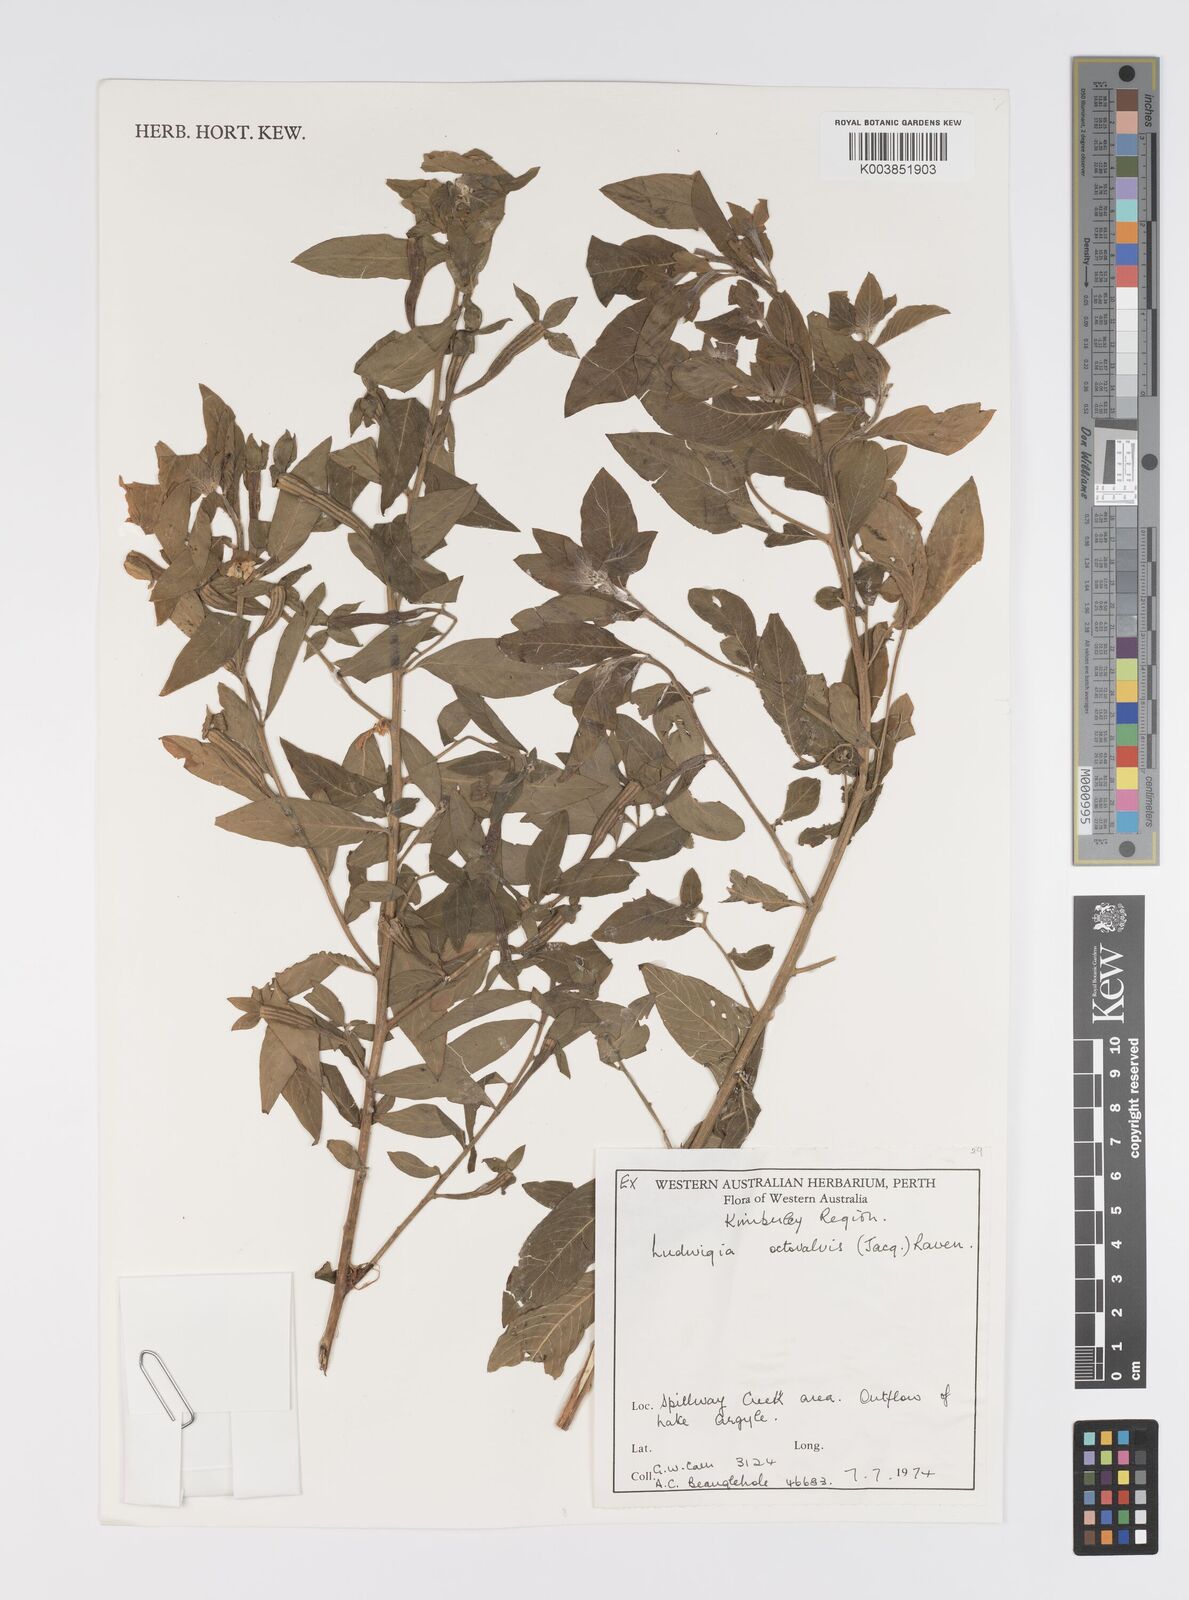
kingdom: Plantae
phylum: Tracheophyta
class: Magnoliopsida
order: Myrtales
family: Onagraceae
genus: Ludwigia
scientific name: Ludwigia octovalvis
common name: Water-primrose
